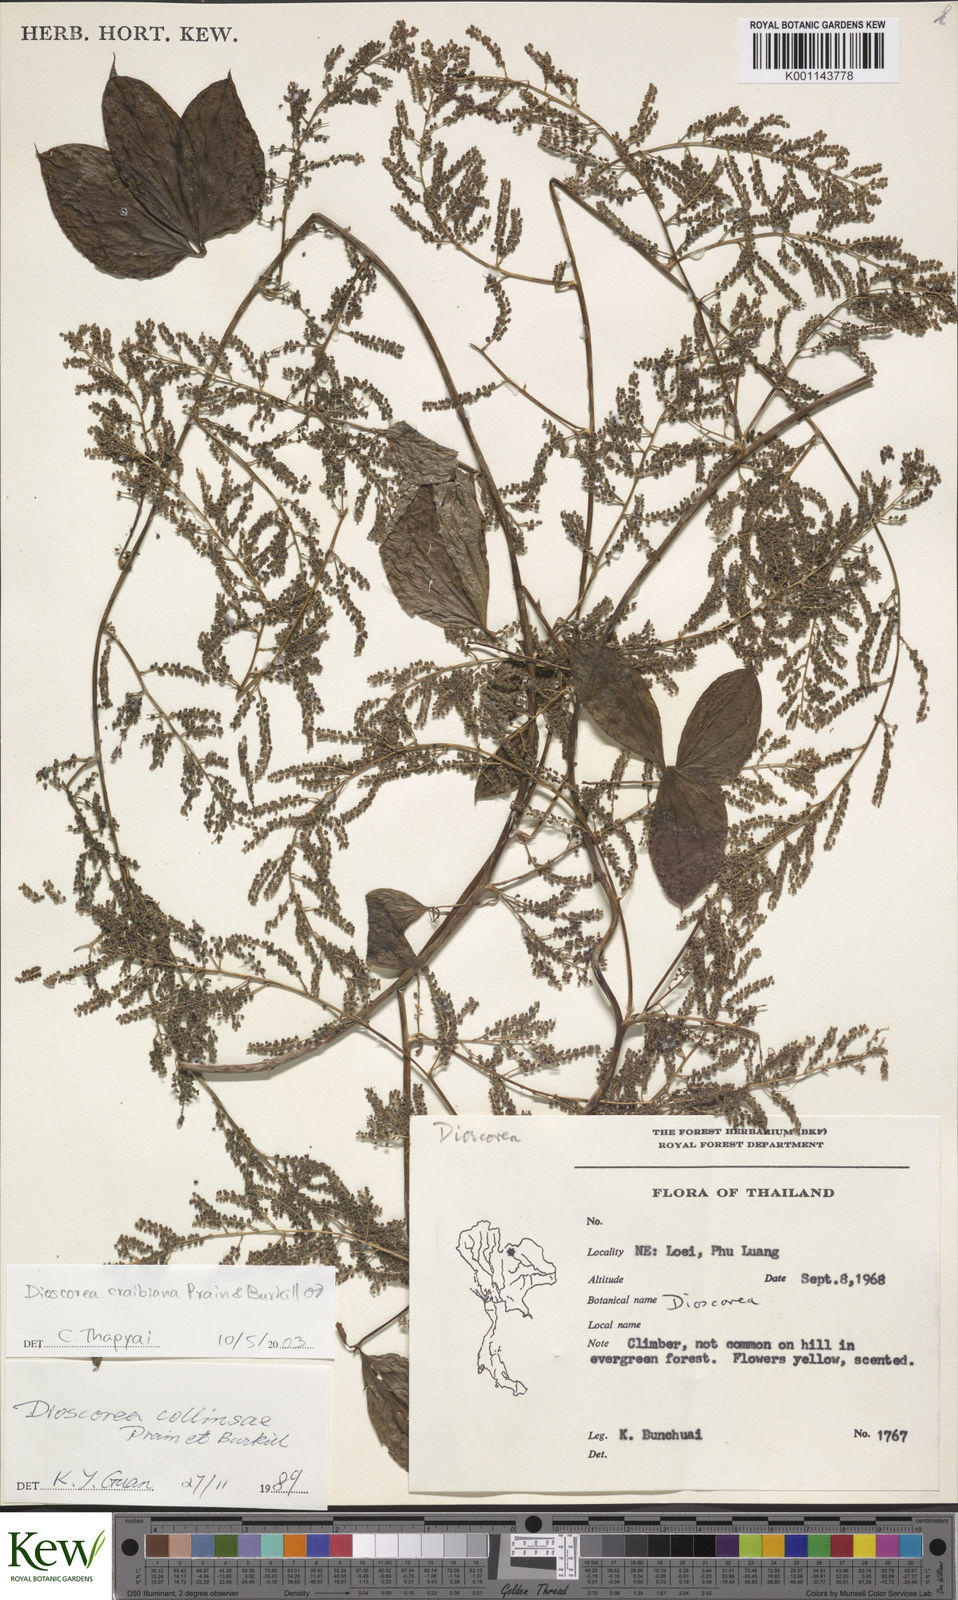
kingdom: Plantae
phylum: Tracheophyta
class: Liliopsida
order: Dioscoreales
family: Dioscoreaceae
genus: Dioscorea
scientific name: Dioscorea craibiana
